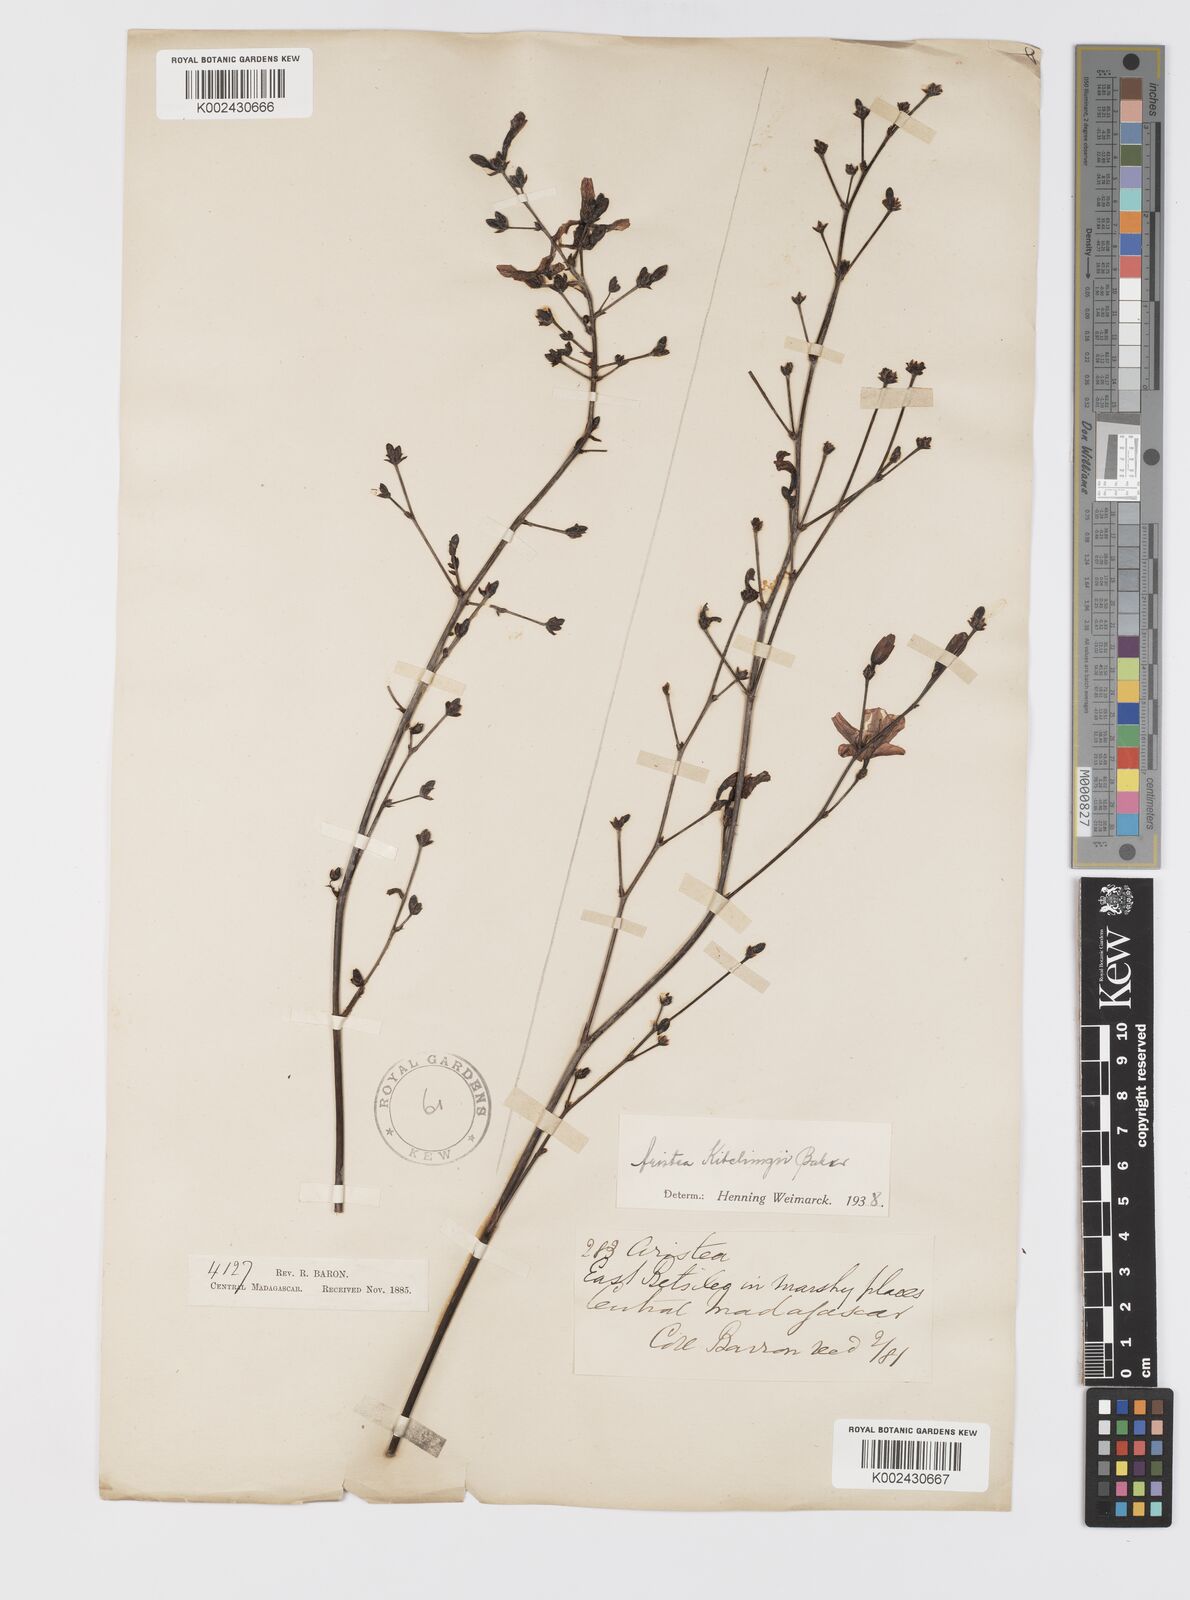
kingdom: Plantae
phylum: Tracheophyta
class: Liliopsida
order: Asparagales
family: Iridaceae
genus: Aristea
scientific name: Aristea kitchingii
